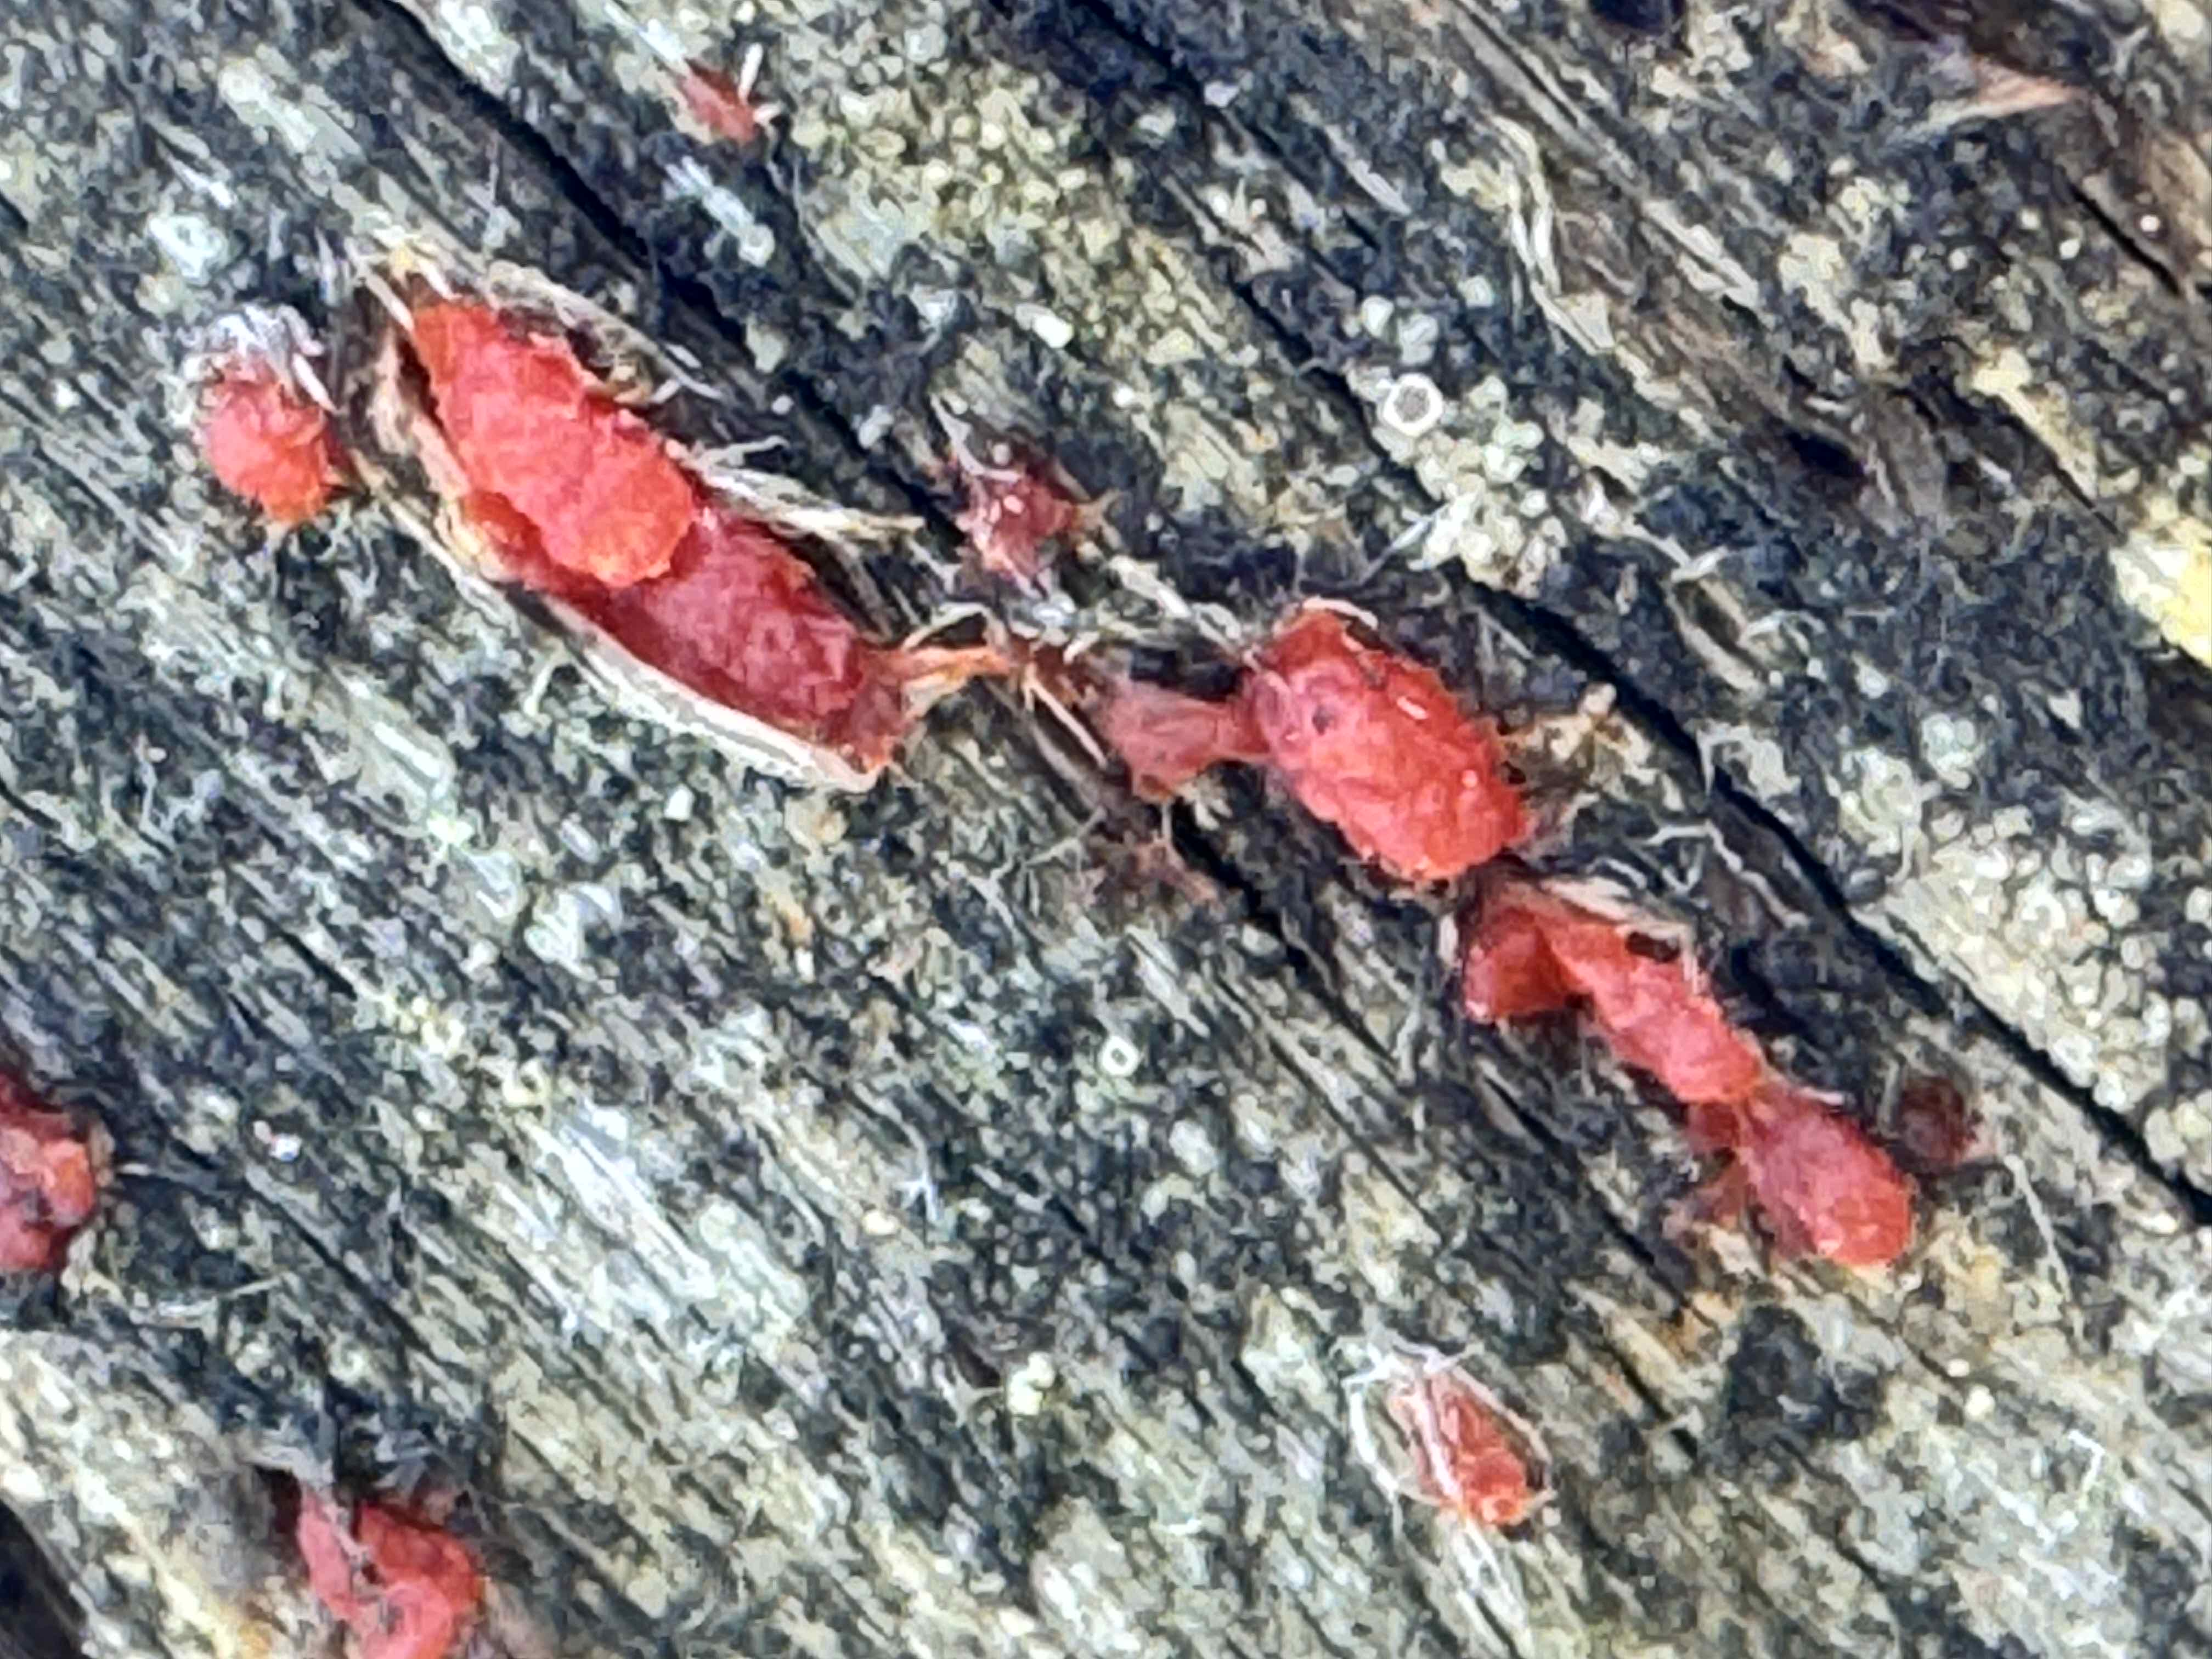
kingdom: Fungi
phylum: Basidiomycota
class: Dacrymycetes
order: Dacrymycetales
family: Dacrymycetaceae
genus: Dacrymyces
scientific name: Dacrymyces stillatus
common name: almindelig tåresvamp
